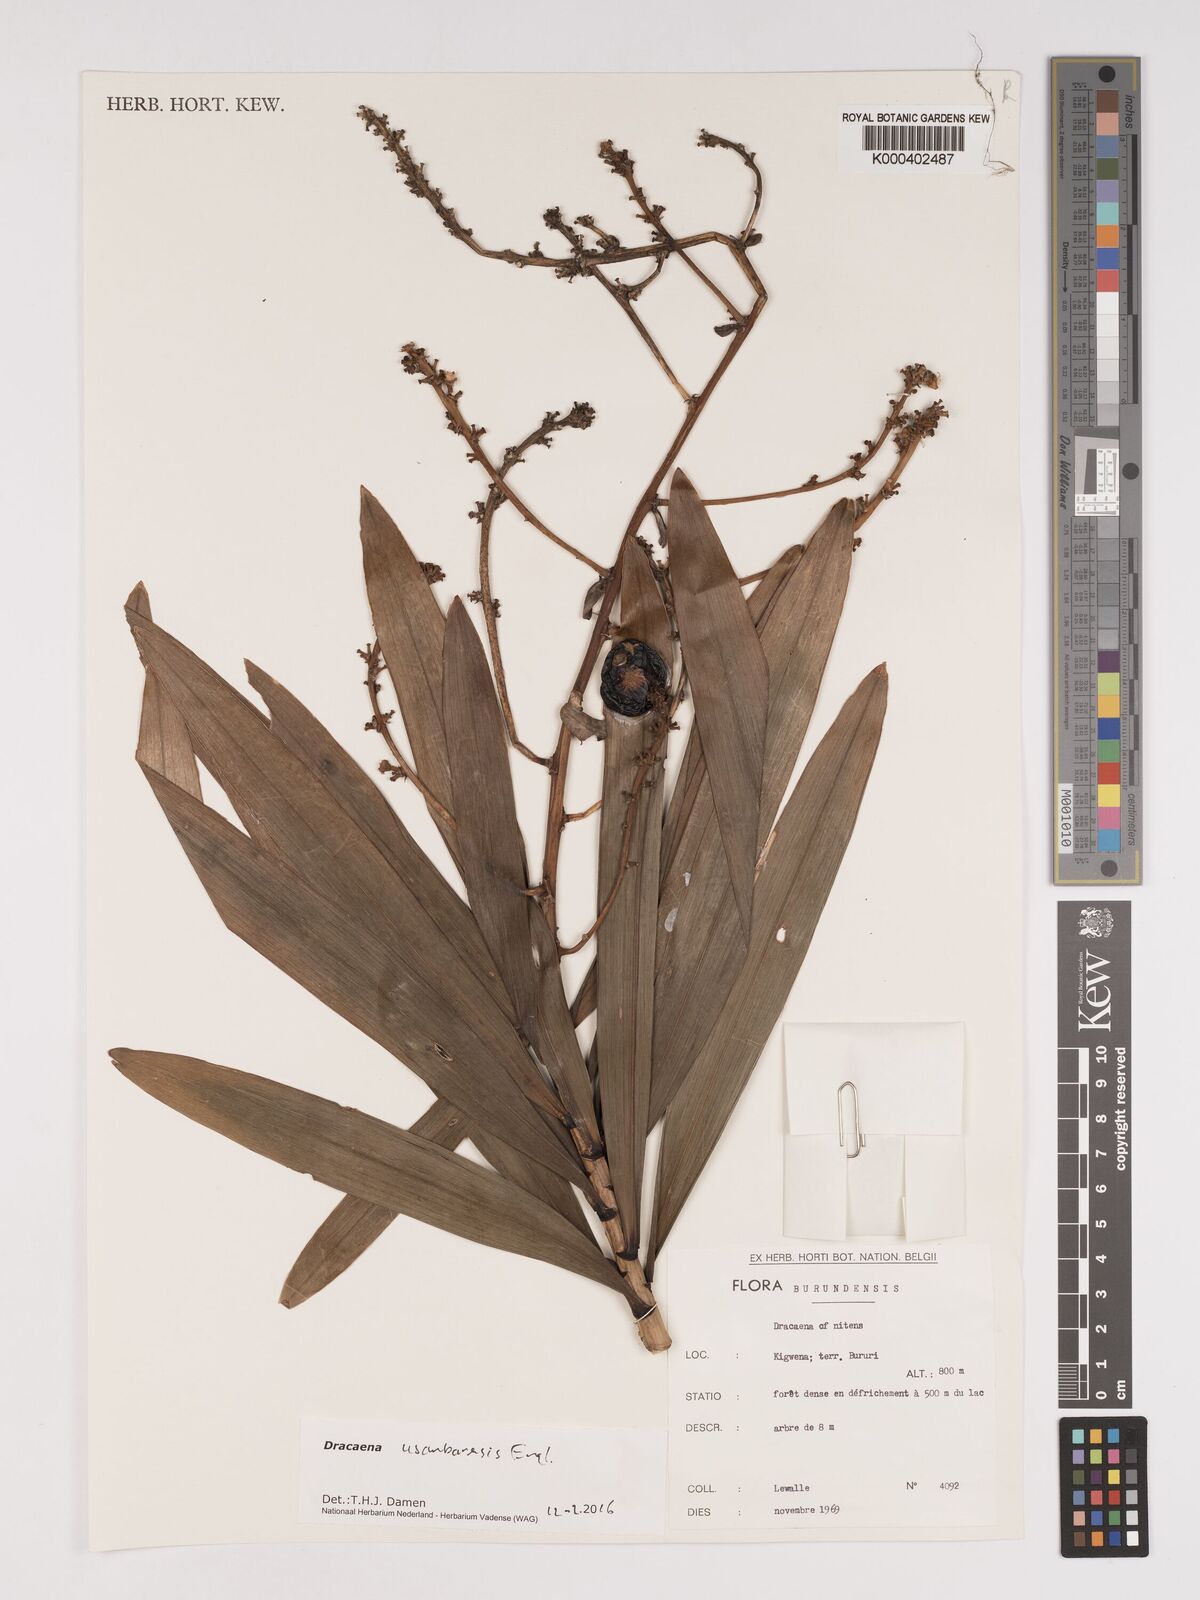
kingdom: Plantae
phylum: Tracheophyta
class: Liliopsida
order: Asparagales
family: Asparagaceae
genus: Dracaena
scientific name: Dracaena usambarensis
